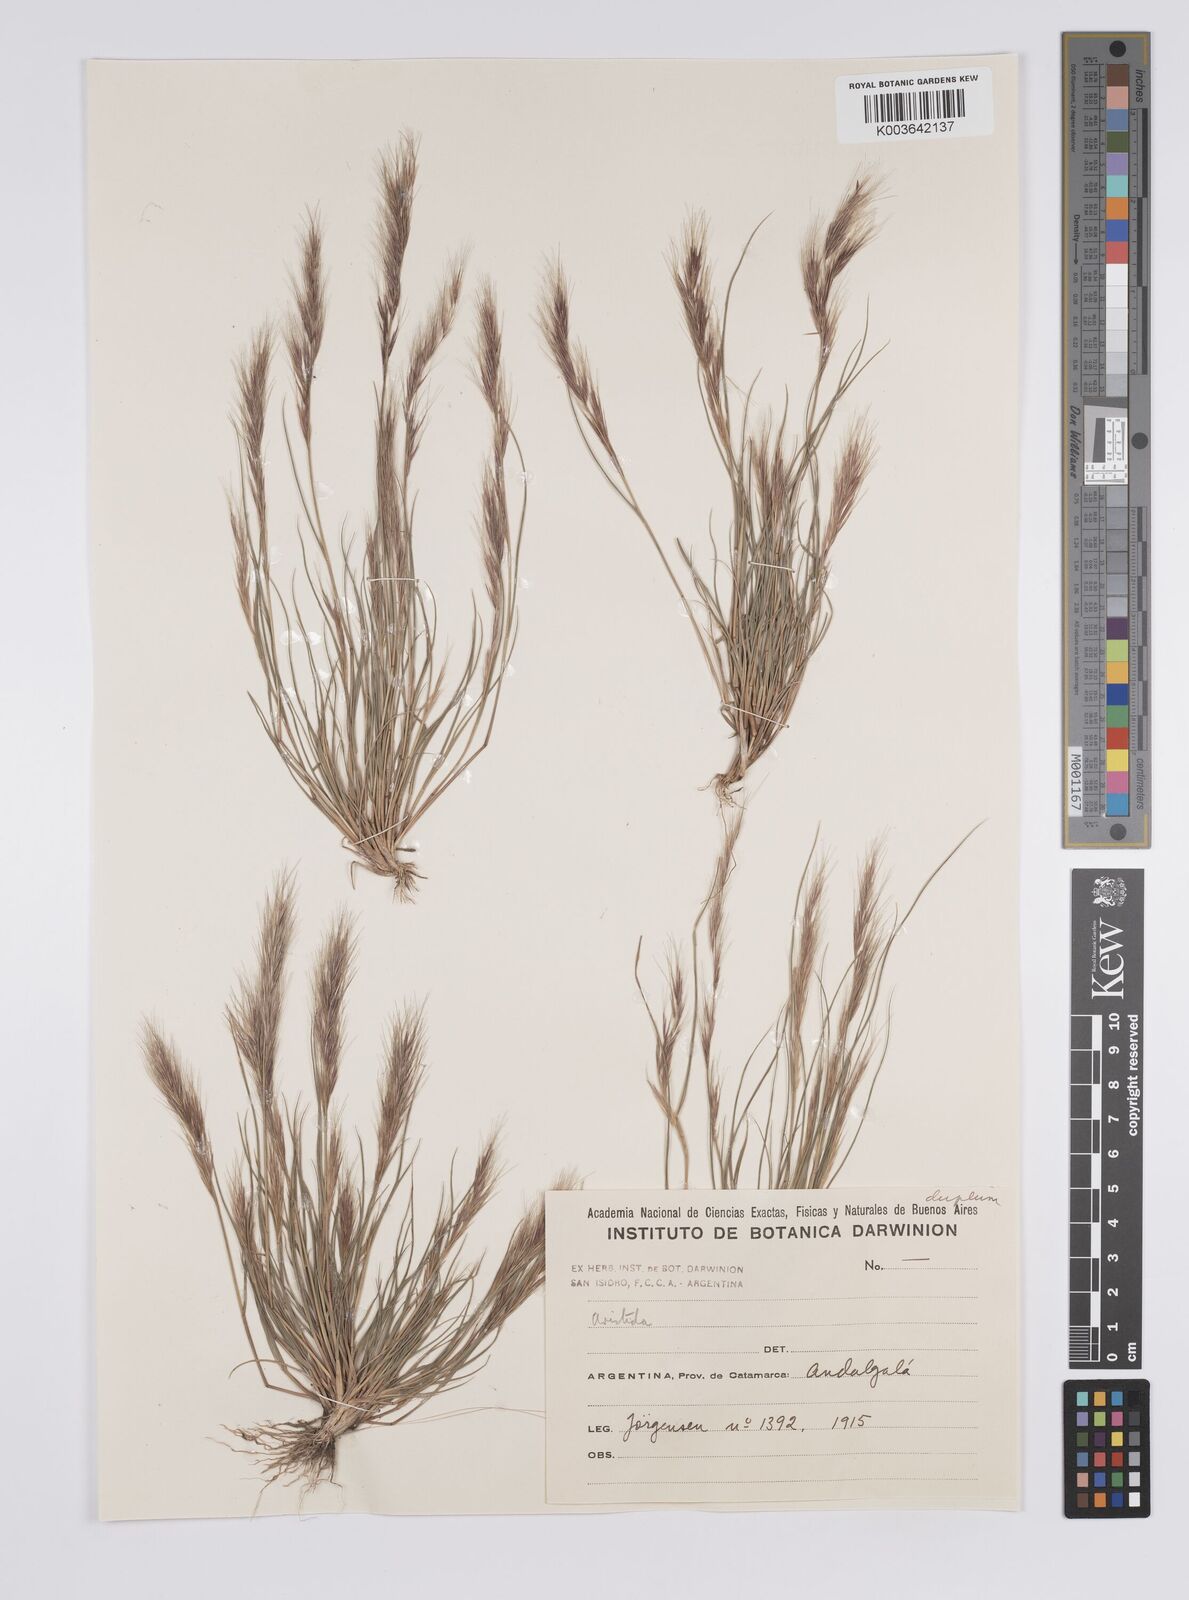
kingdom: Plantae
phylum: Tracheophyta
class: Liliopsida
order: Poales
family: Poaceae
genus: Aristida
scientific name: Aristida
